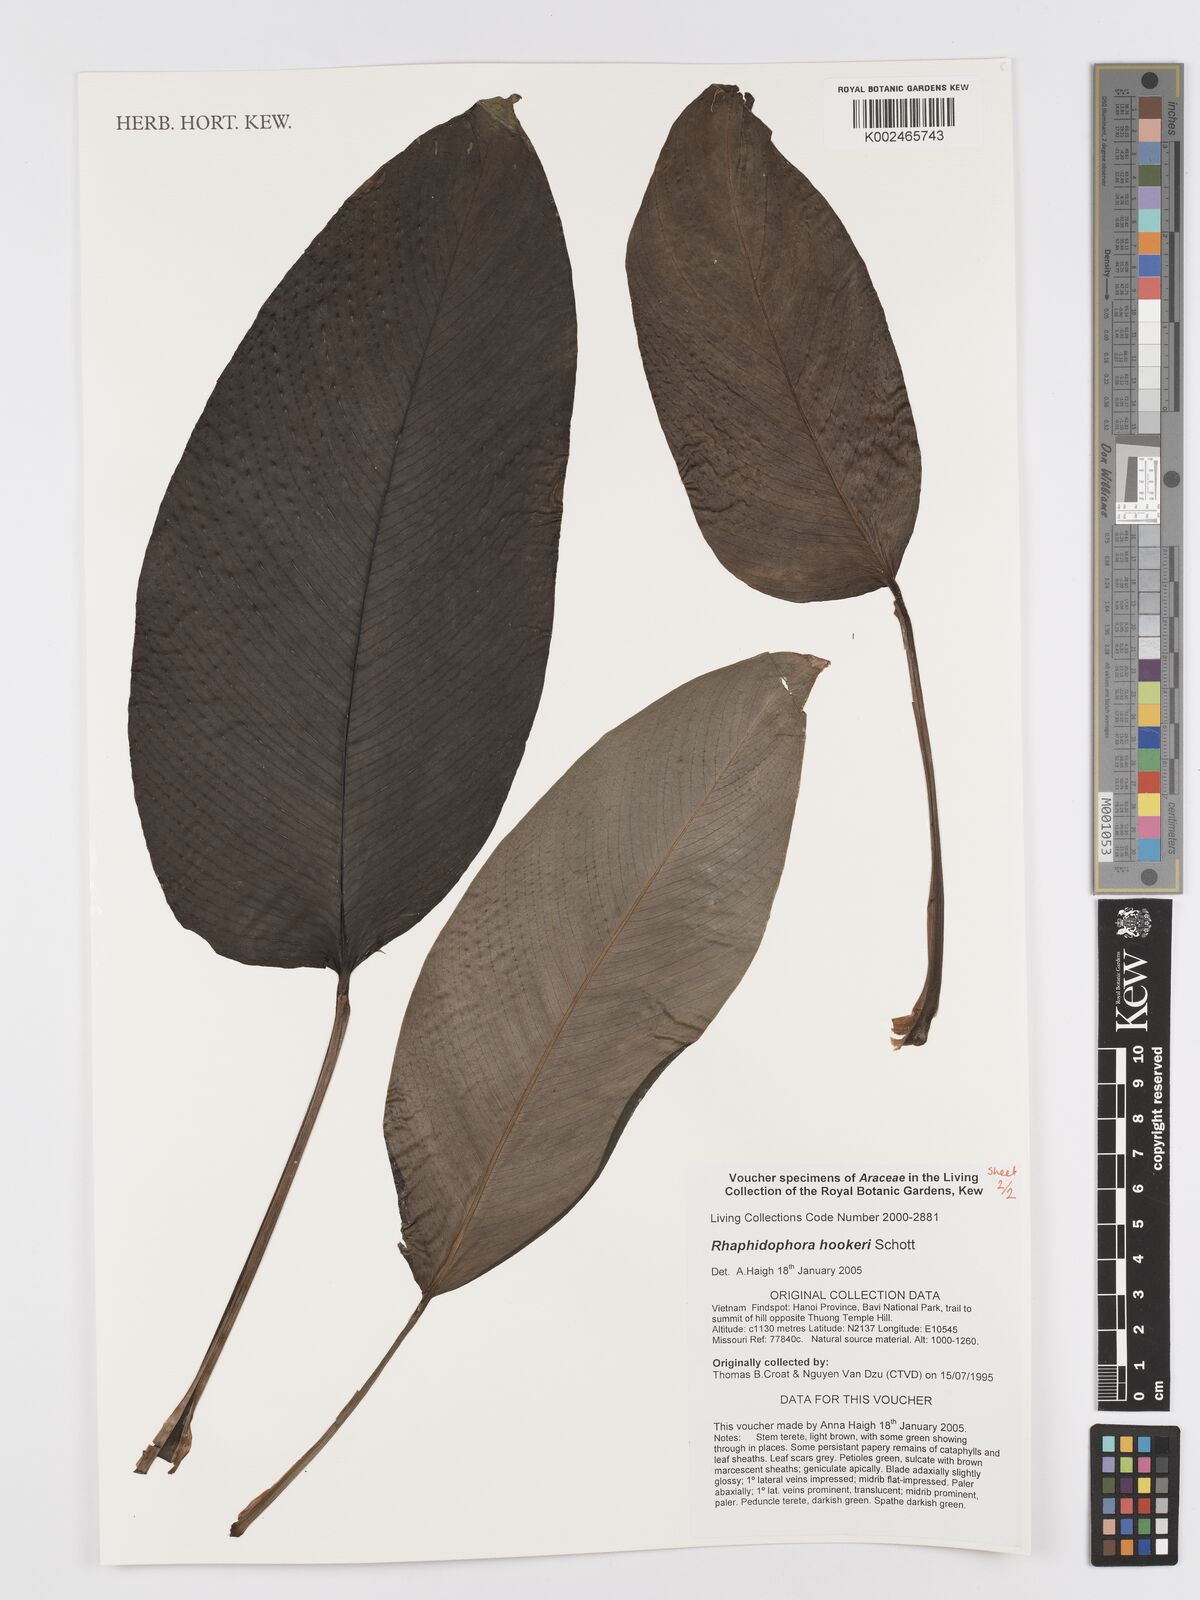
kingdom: Plantae
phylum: Tracheophyta
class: Liliopsida
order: Alismatales
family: Araceae
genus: Rhaphidophora
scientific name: Rhaphidophora hookeri
